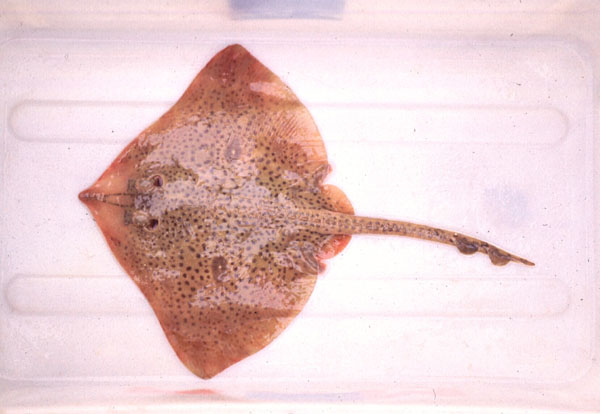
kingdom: Animalia
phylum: Chordata
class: Elasmobranchii
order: Rajiformes
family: Rajidae
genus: Raja
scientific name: Raja straeleni
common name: Biscuit skate
